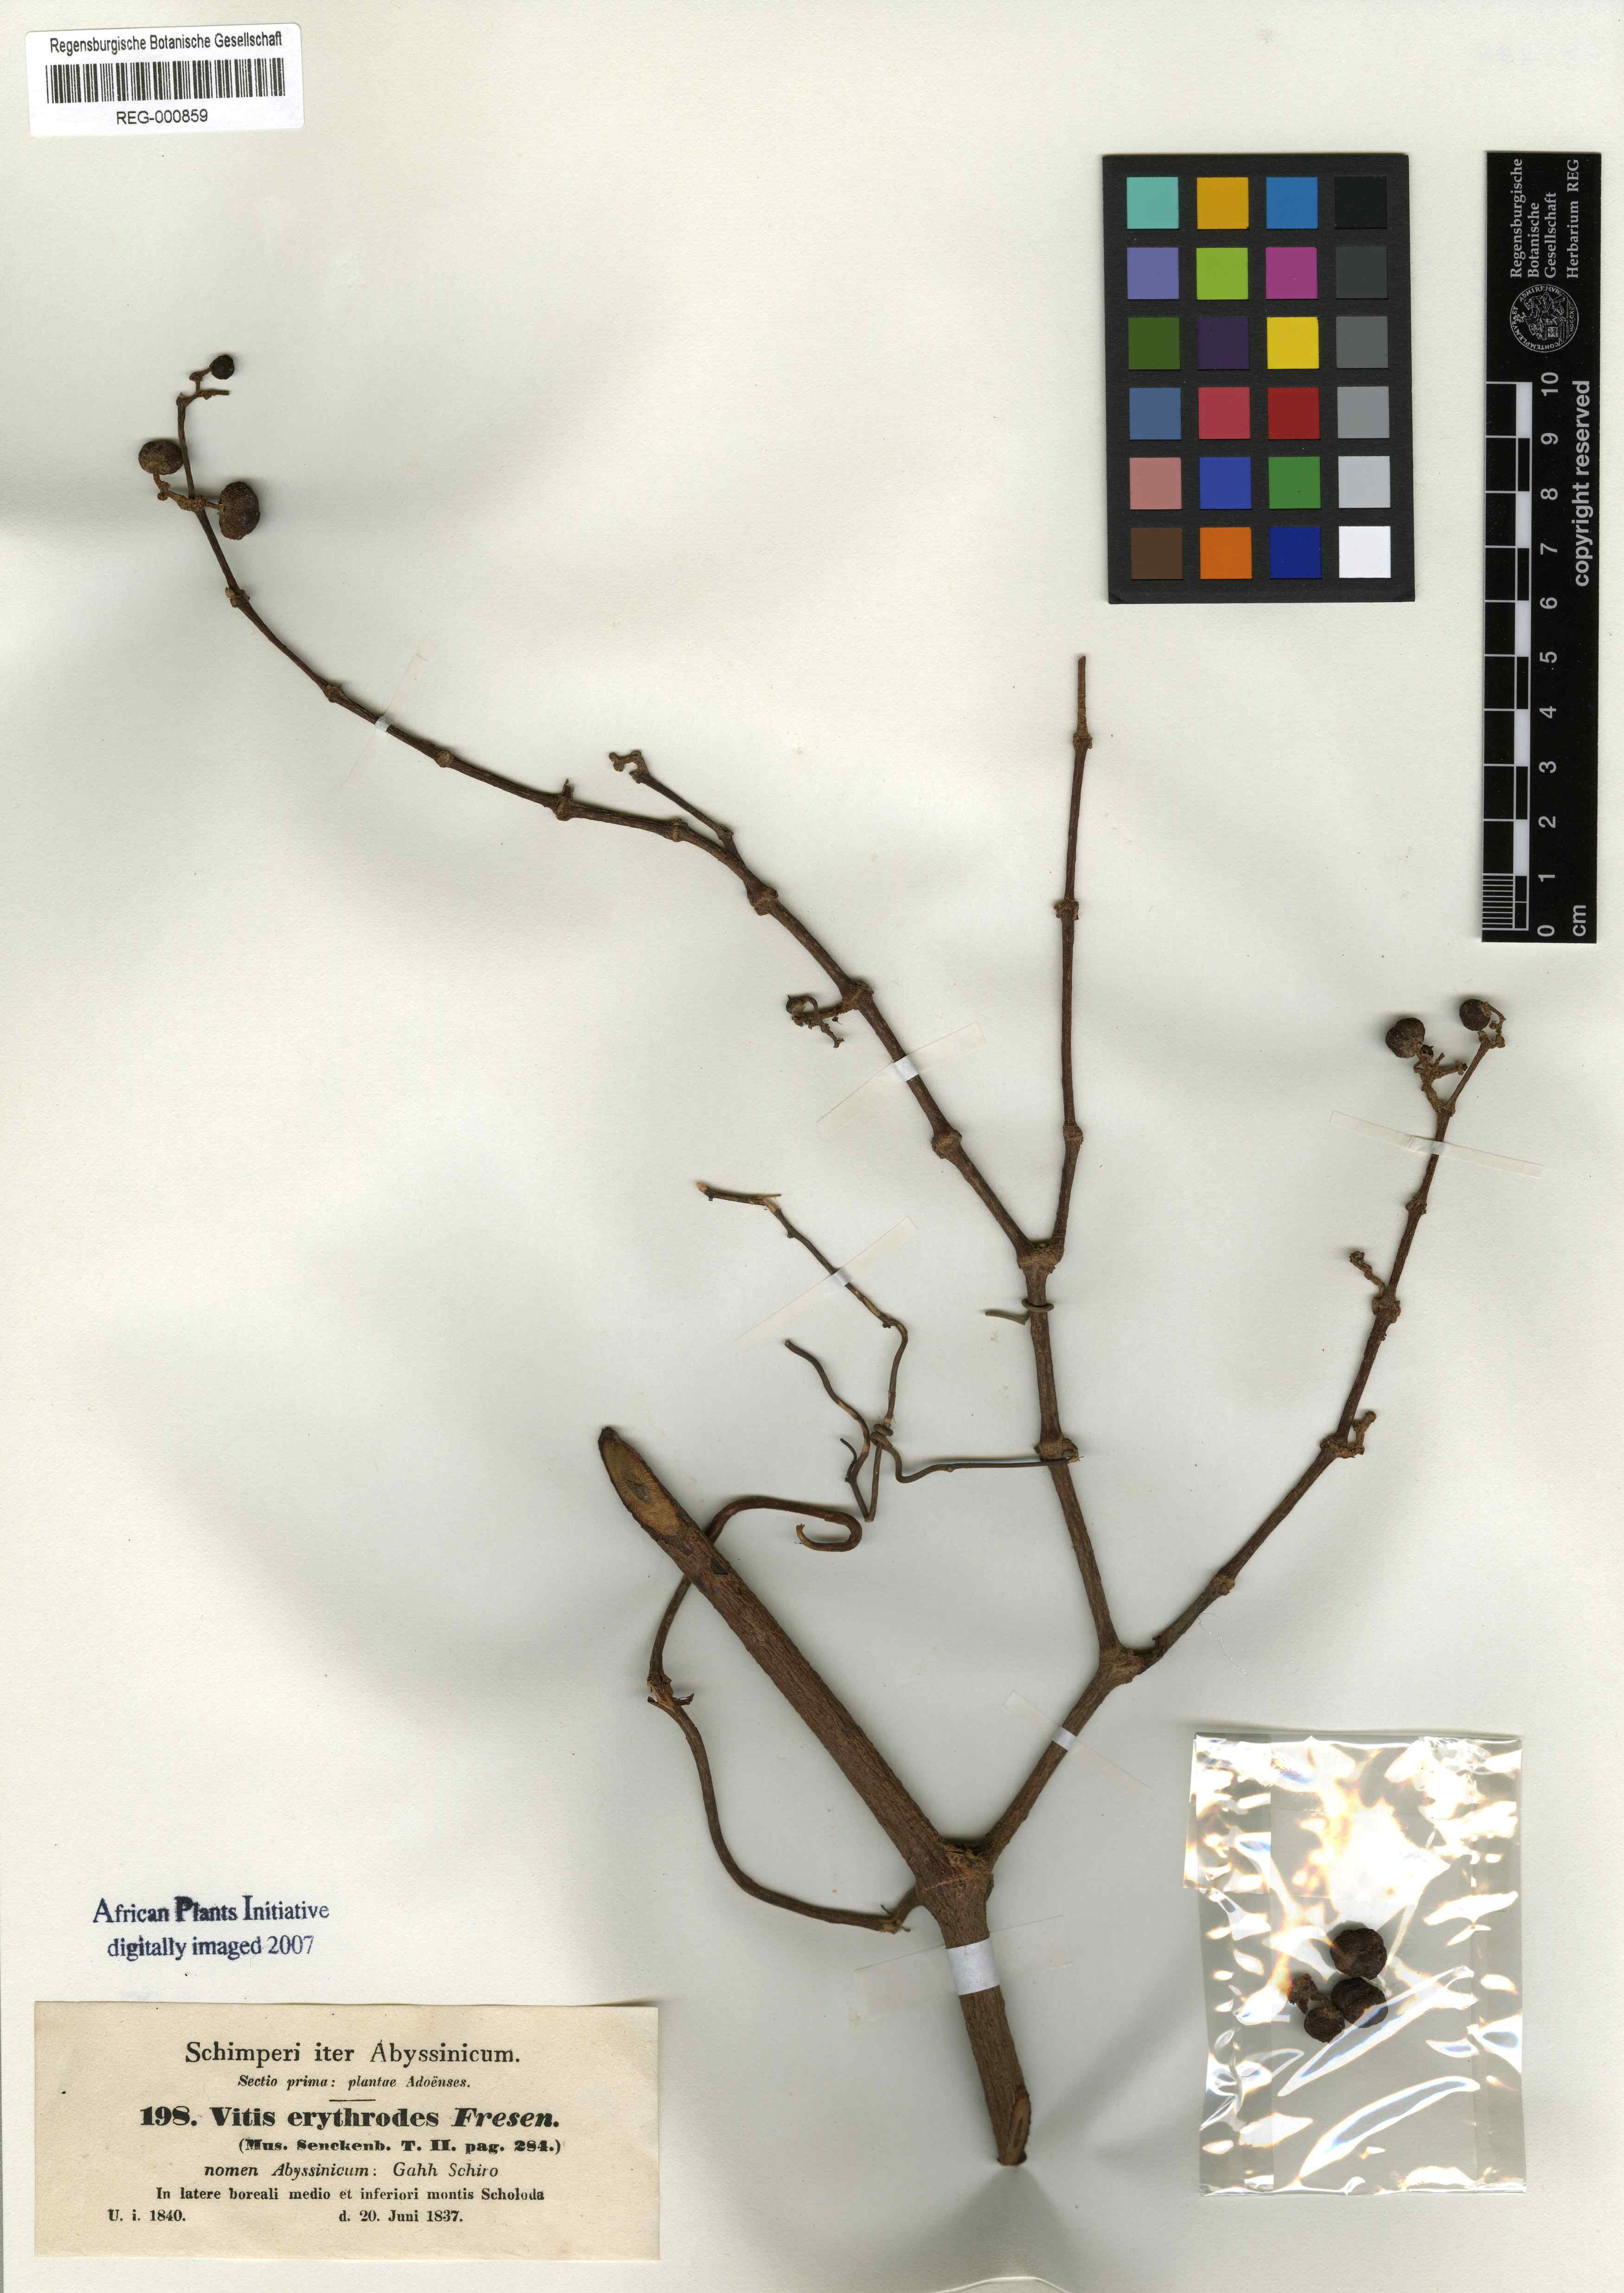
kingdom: Plantae
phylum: Tracheophyta
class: Magnoliopsida
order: Vitales
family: Vitaceae
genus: Rhoicissus
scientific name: Rhoicissus tridentata
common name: Common forest grape
